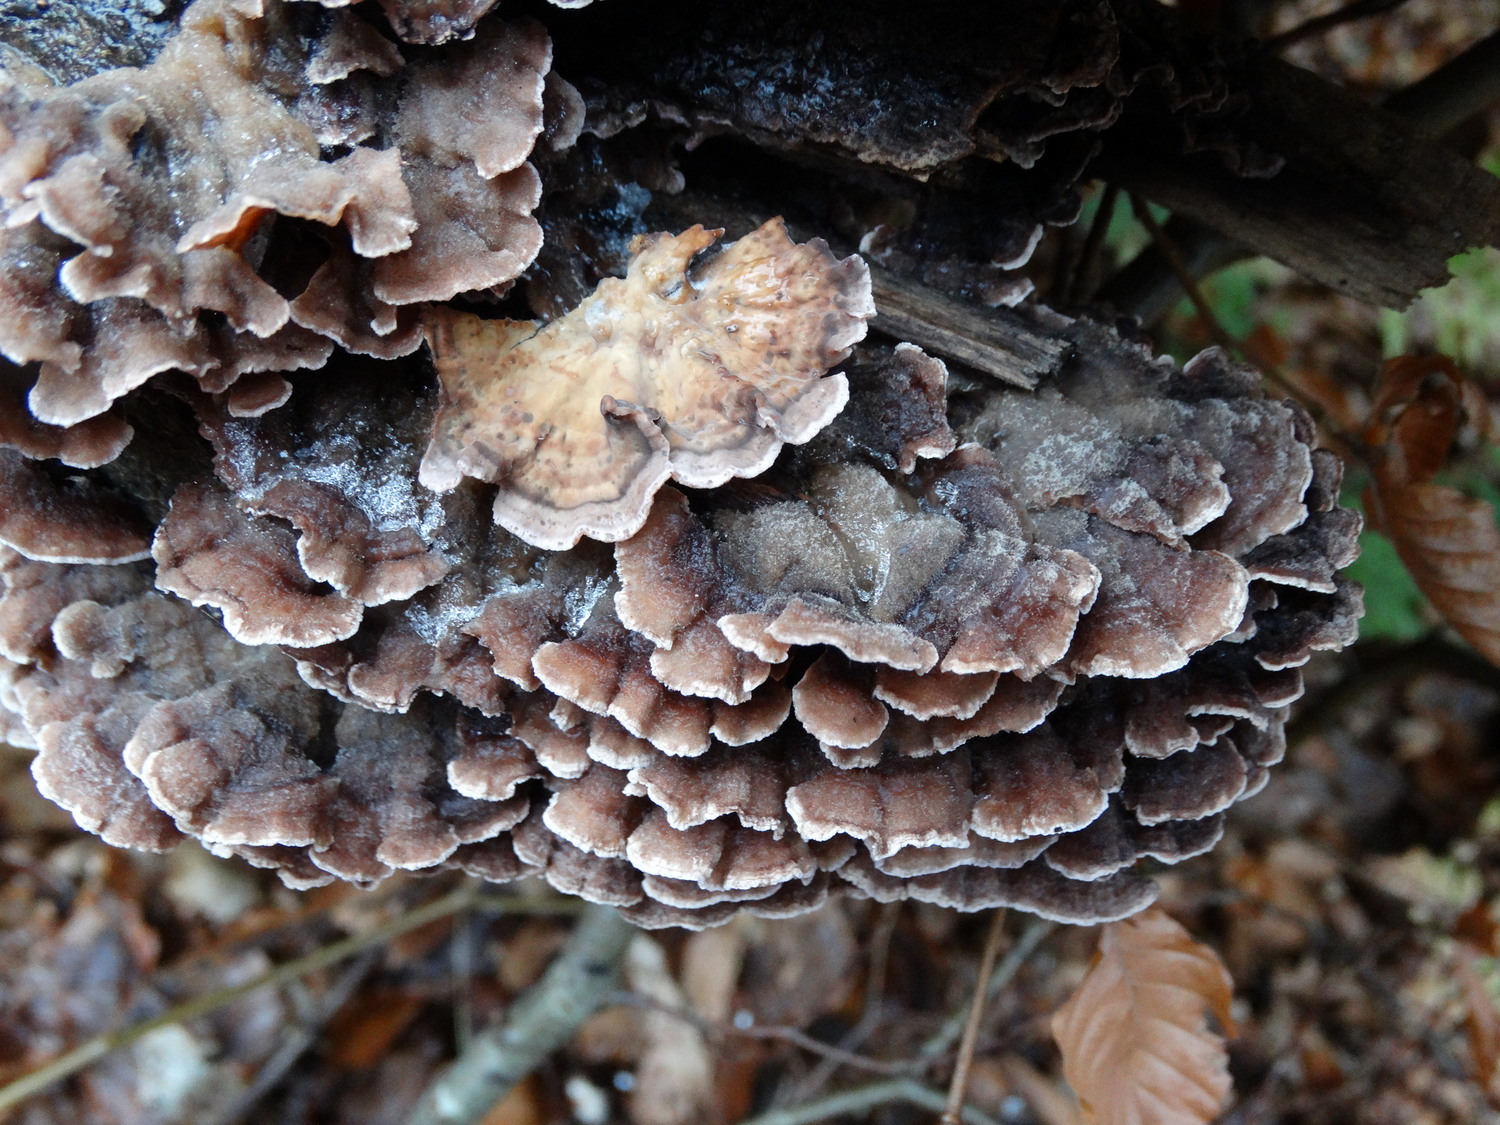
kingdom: Fungi
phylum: Basidiomycota
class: Agaricomycetes
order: Agaricales
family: Cyphellaceae
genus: Chondrostereum
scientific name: Chondrostereum purpureum
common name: purpurlædersvamp
